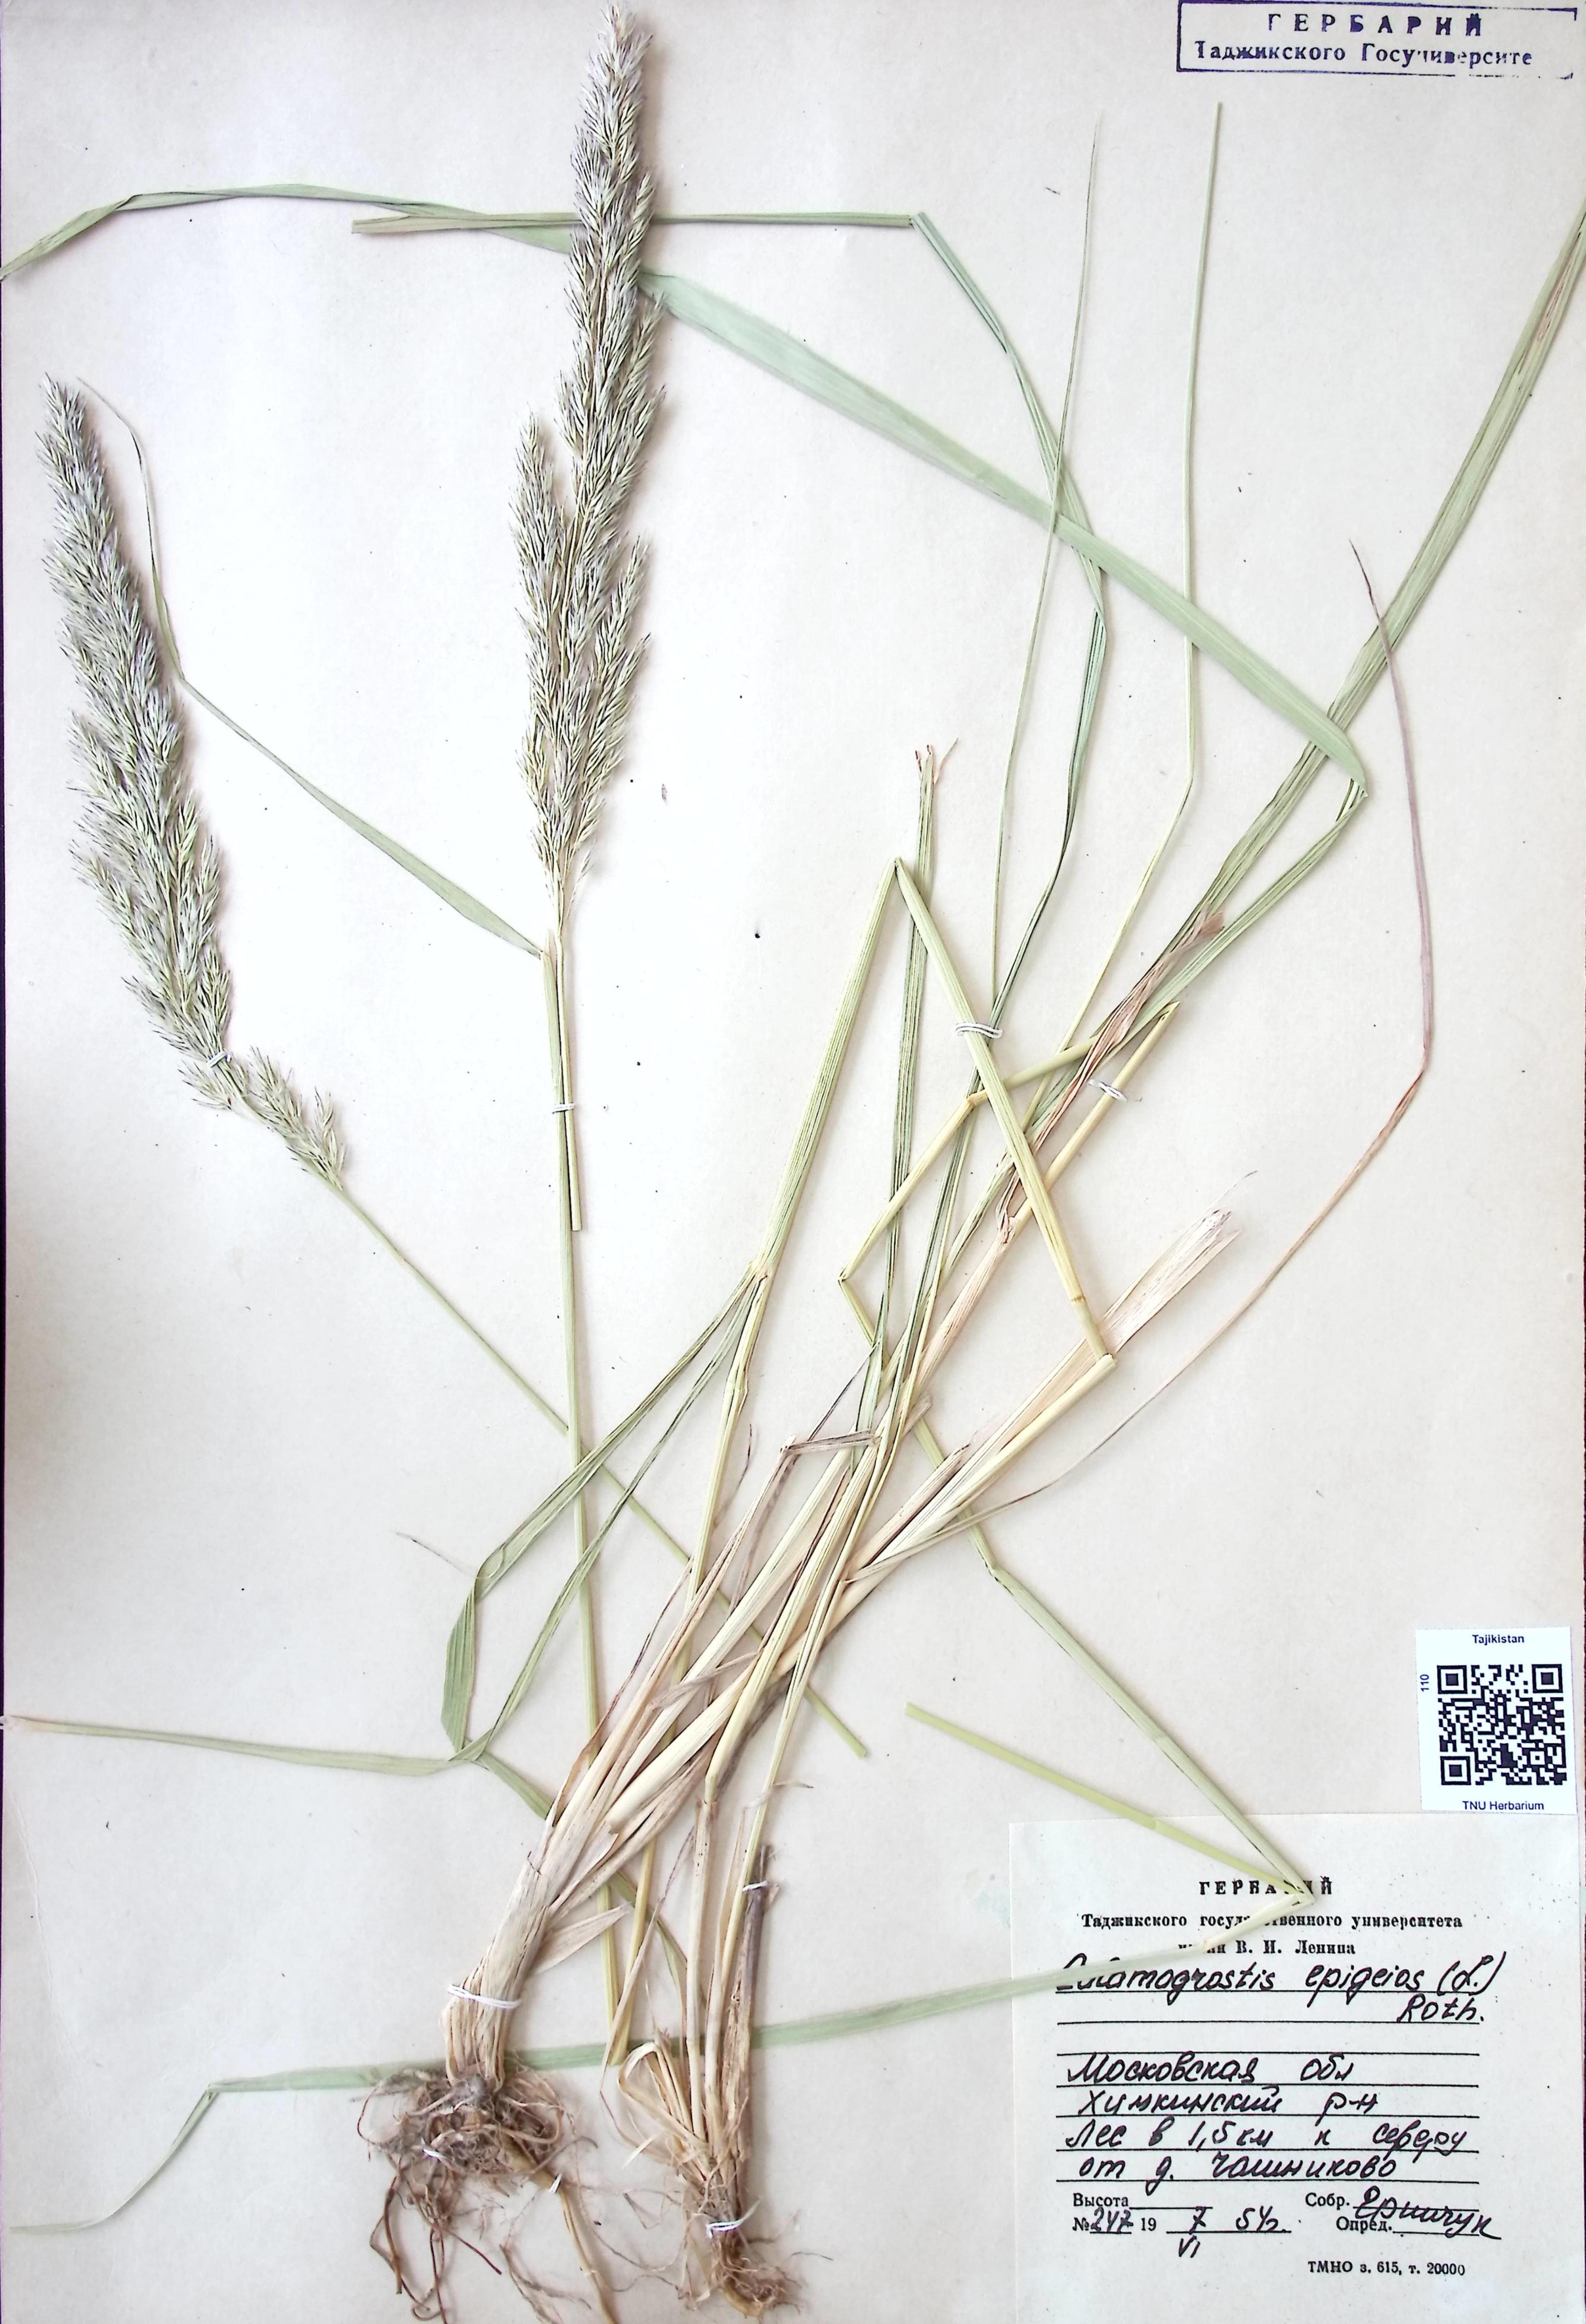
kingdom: Plantae
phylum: Tracheophyta
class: Liliopsida
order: Poales
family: Poaceae
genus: Calamagrostis
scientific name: Calamagrostis epigeios
